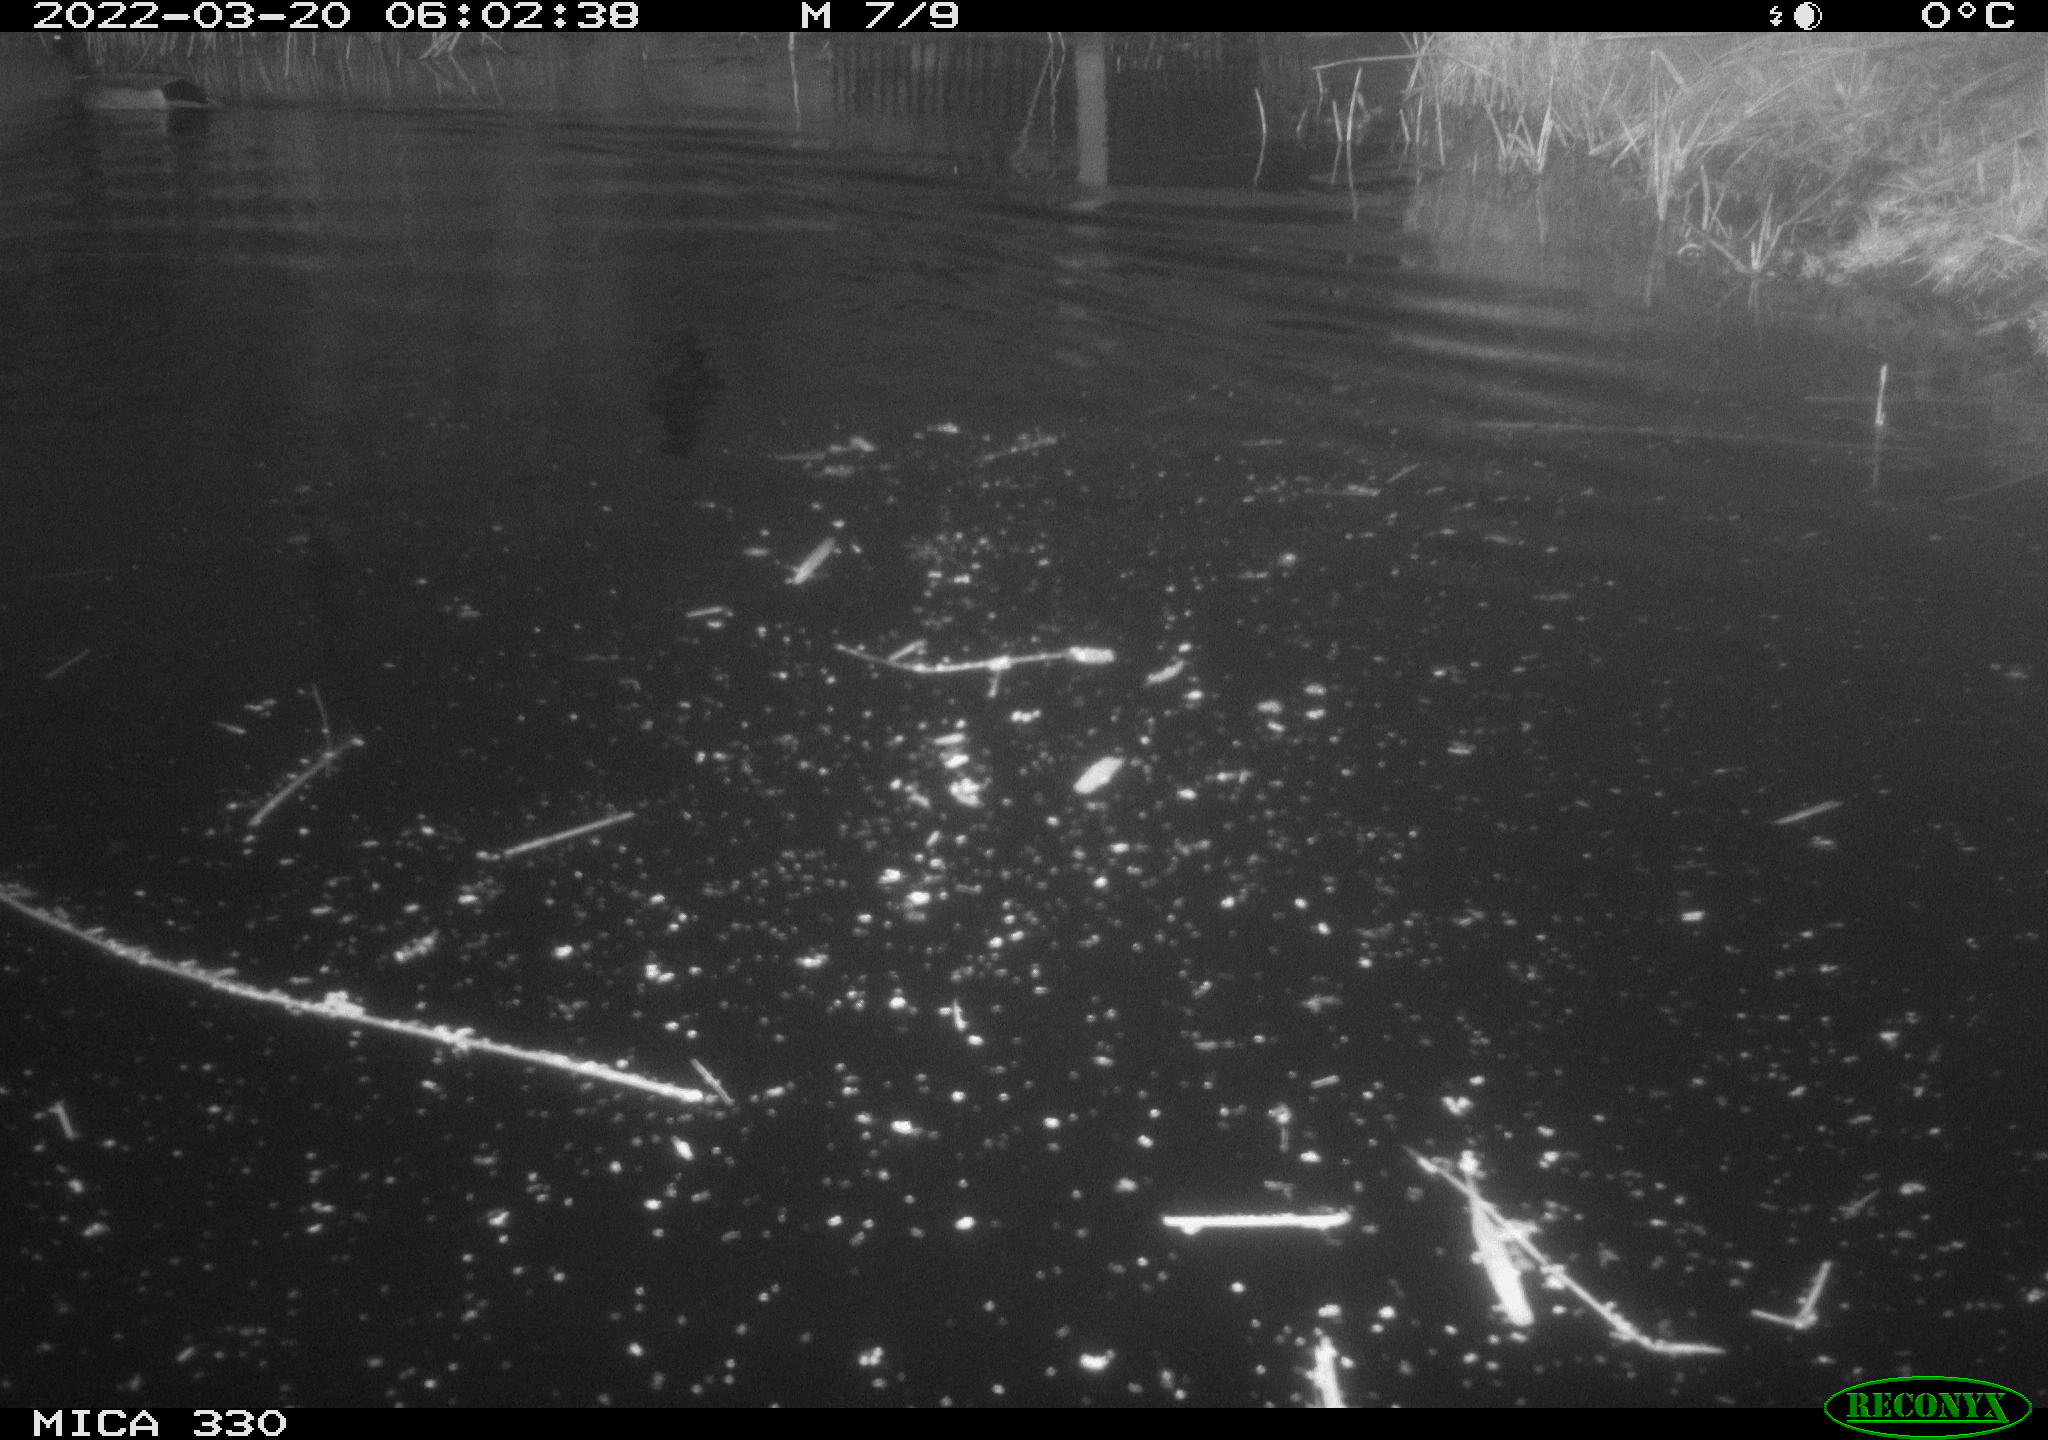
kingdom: Animalia
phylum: Chordata
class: Aves
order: Anseriformes
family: Anatidae
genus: Anas
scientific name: Anas platyrhynchos
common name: Mallard
